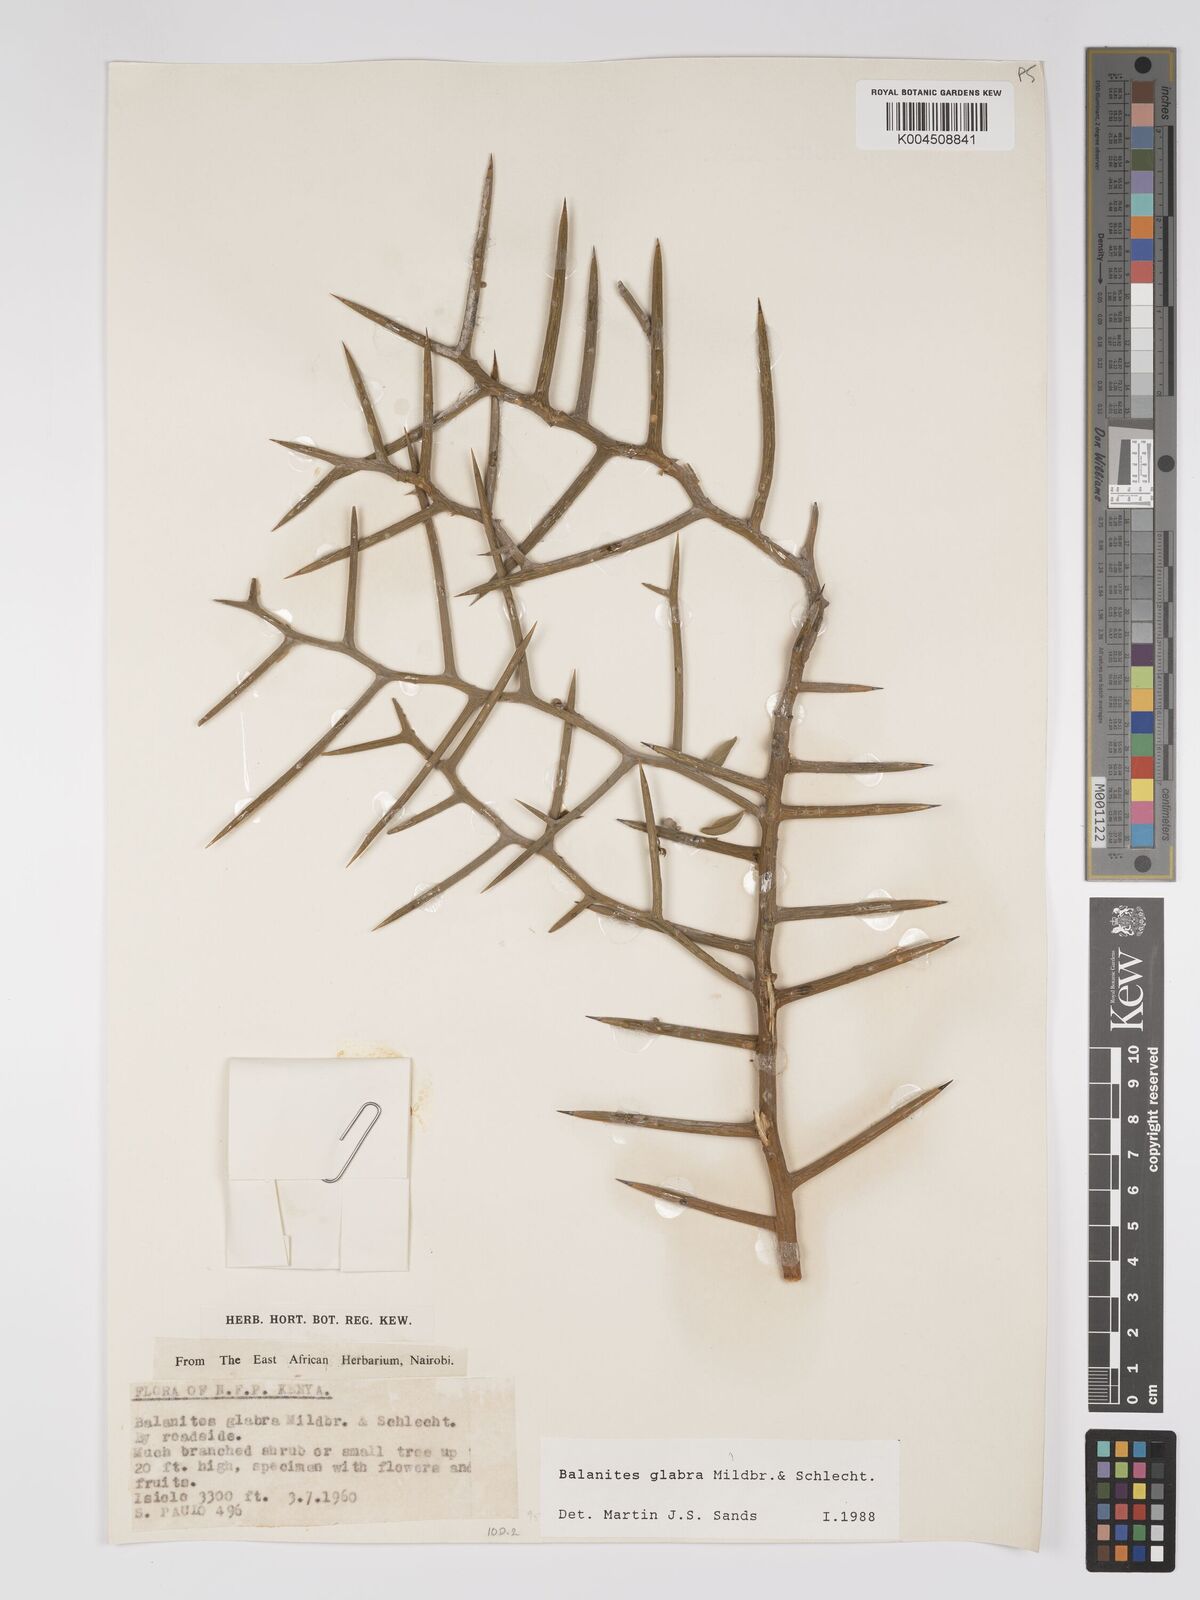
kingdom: Plantae
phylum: Tracheophyta
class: Magnoliopsida
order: Zygophyllales
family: Zygophyllaceae
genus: Balanites
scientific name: Balanites glabra
